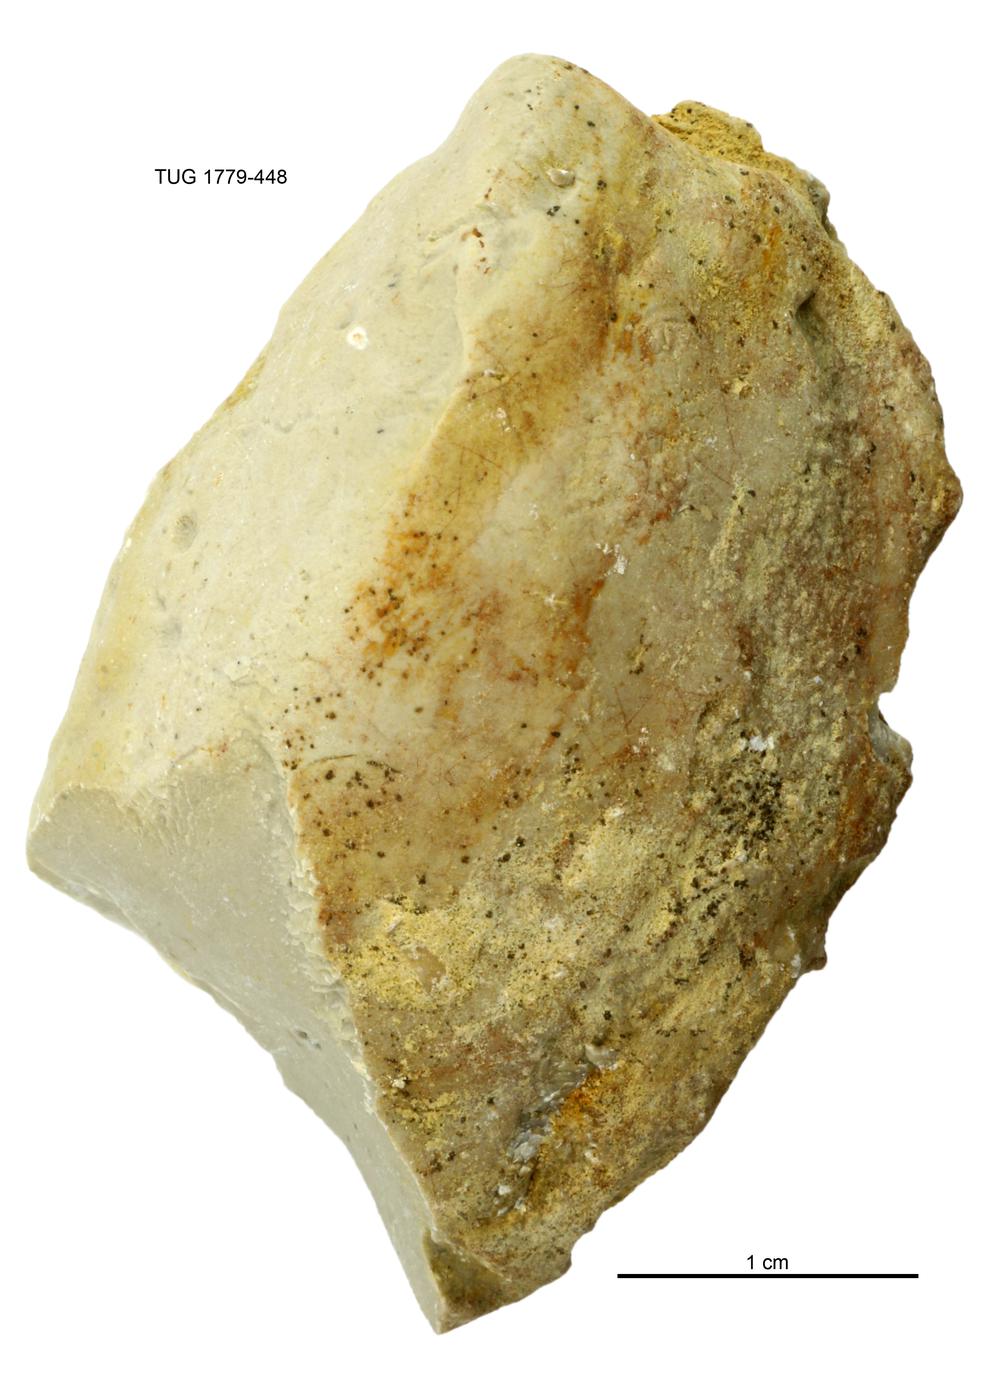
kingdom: Animalia
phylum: Mollusca
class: Bivalvia
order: Modiomorphida
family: Modiomorphidae
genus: Modiolopsis
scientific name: Modiolopsis
